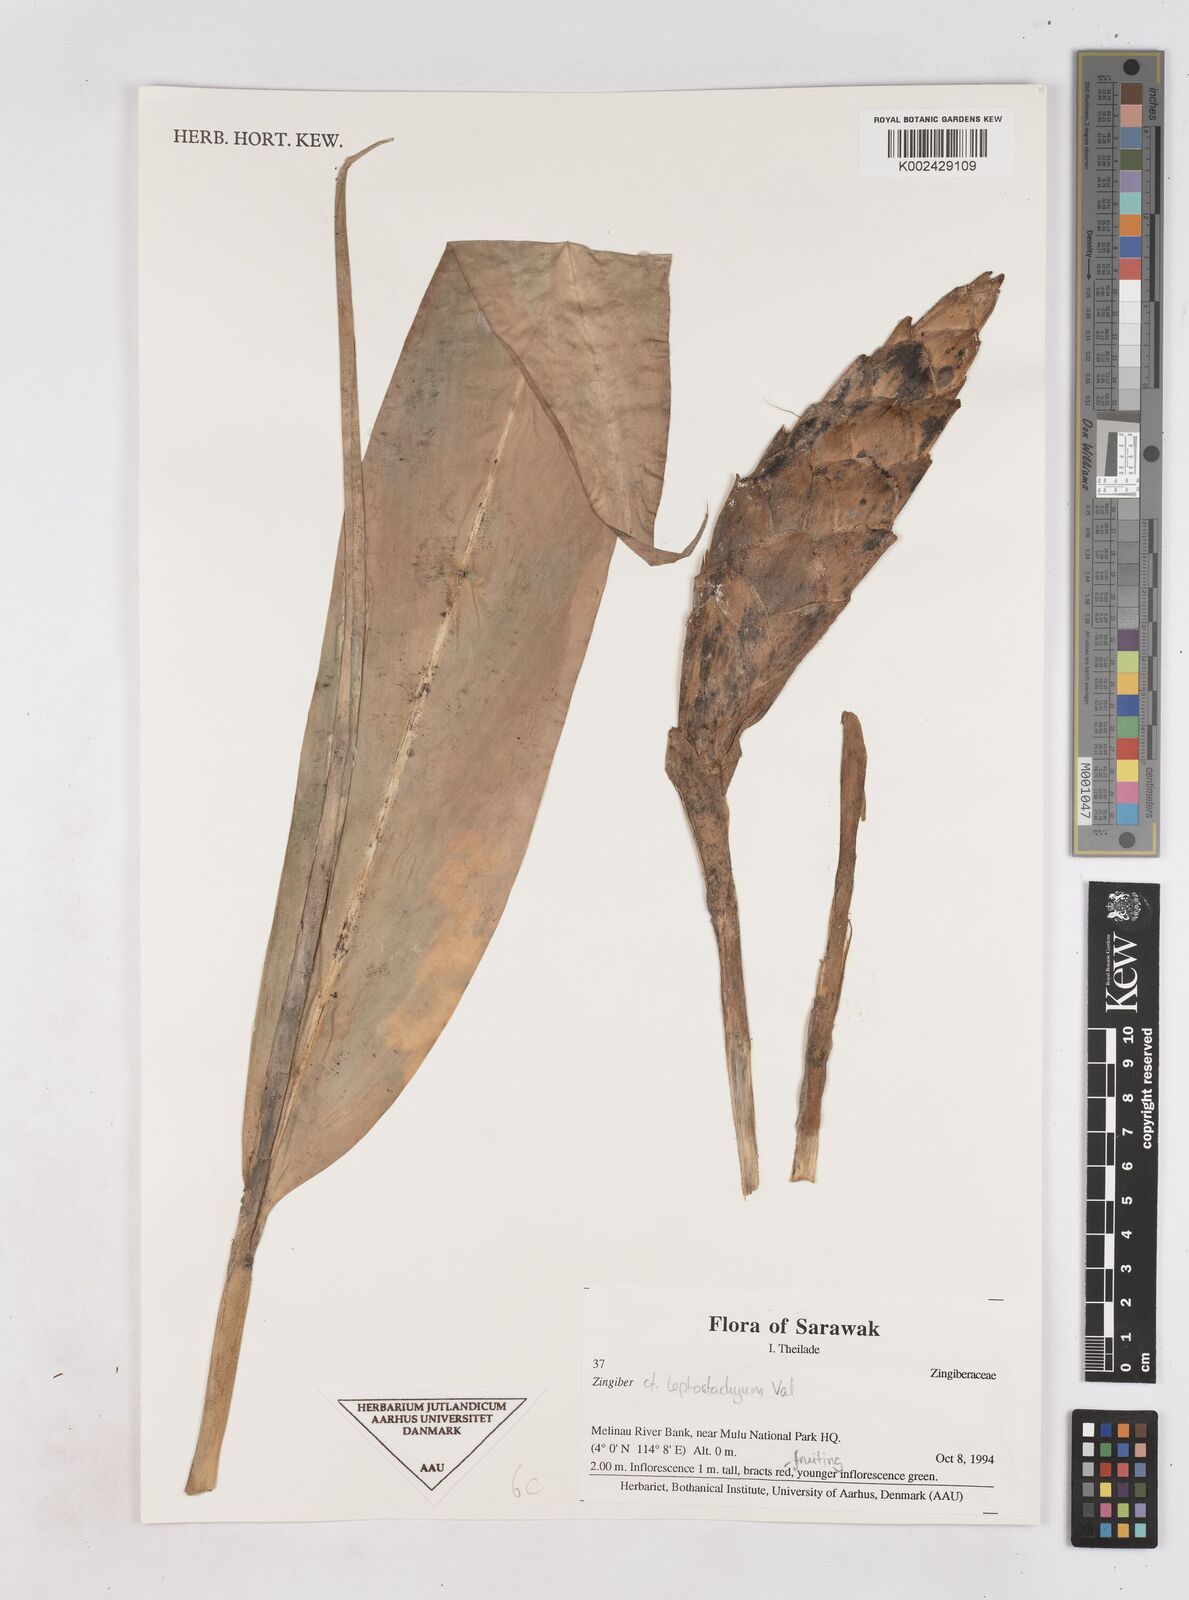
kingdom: Plantae
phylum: Tracheophyta
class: Liliopsida
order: Zingiberales
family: Zingiberaceae
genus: Zingiber
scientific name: Zingiber leptostachyum
